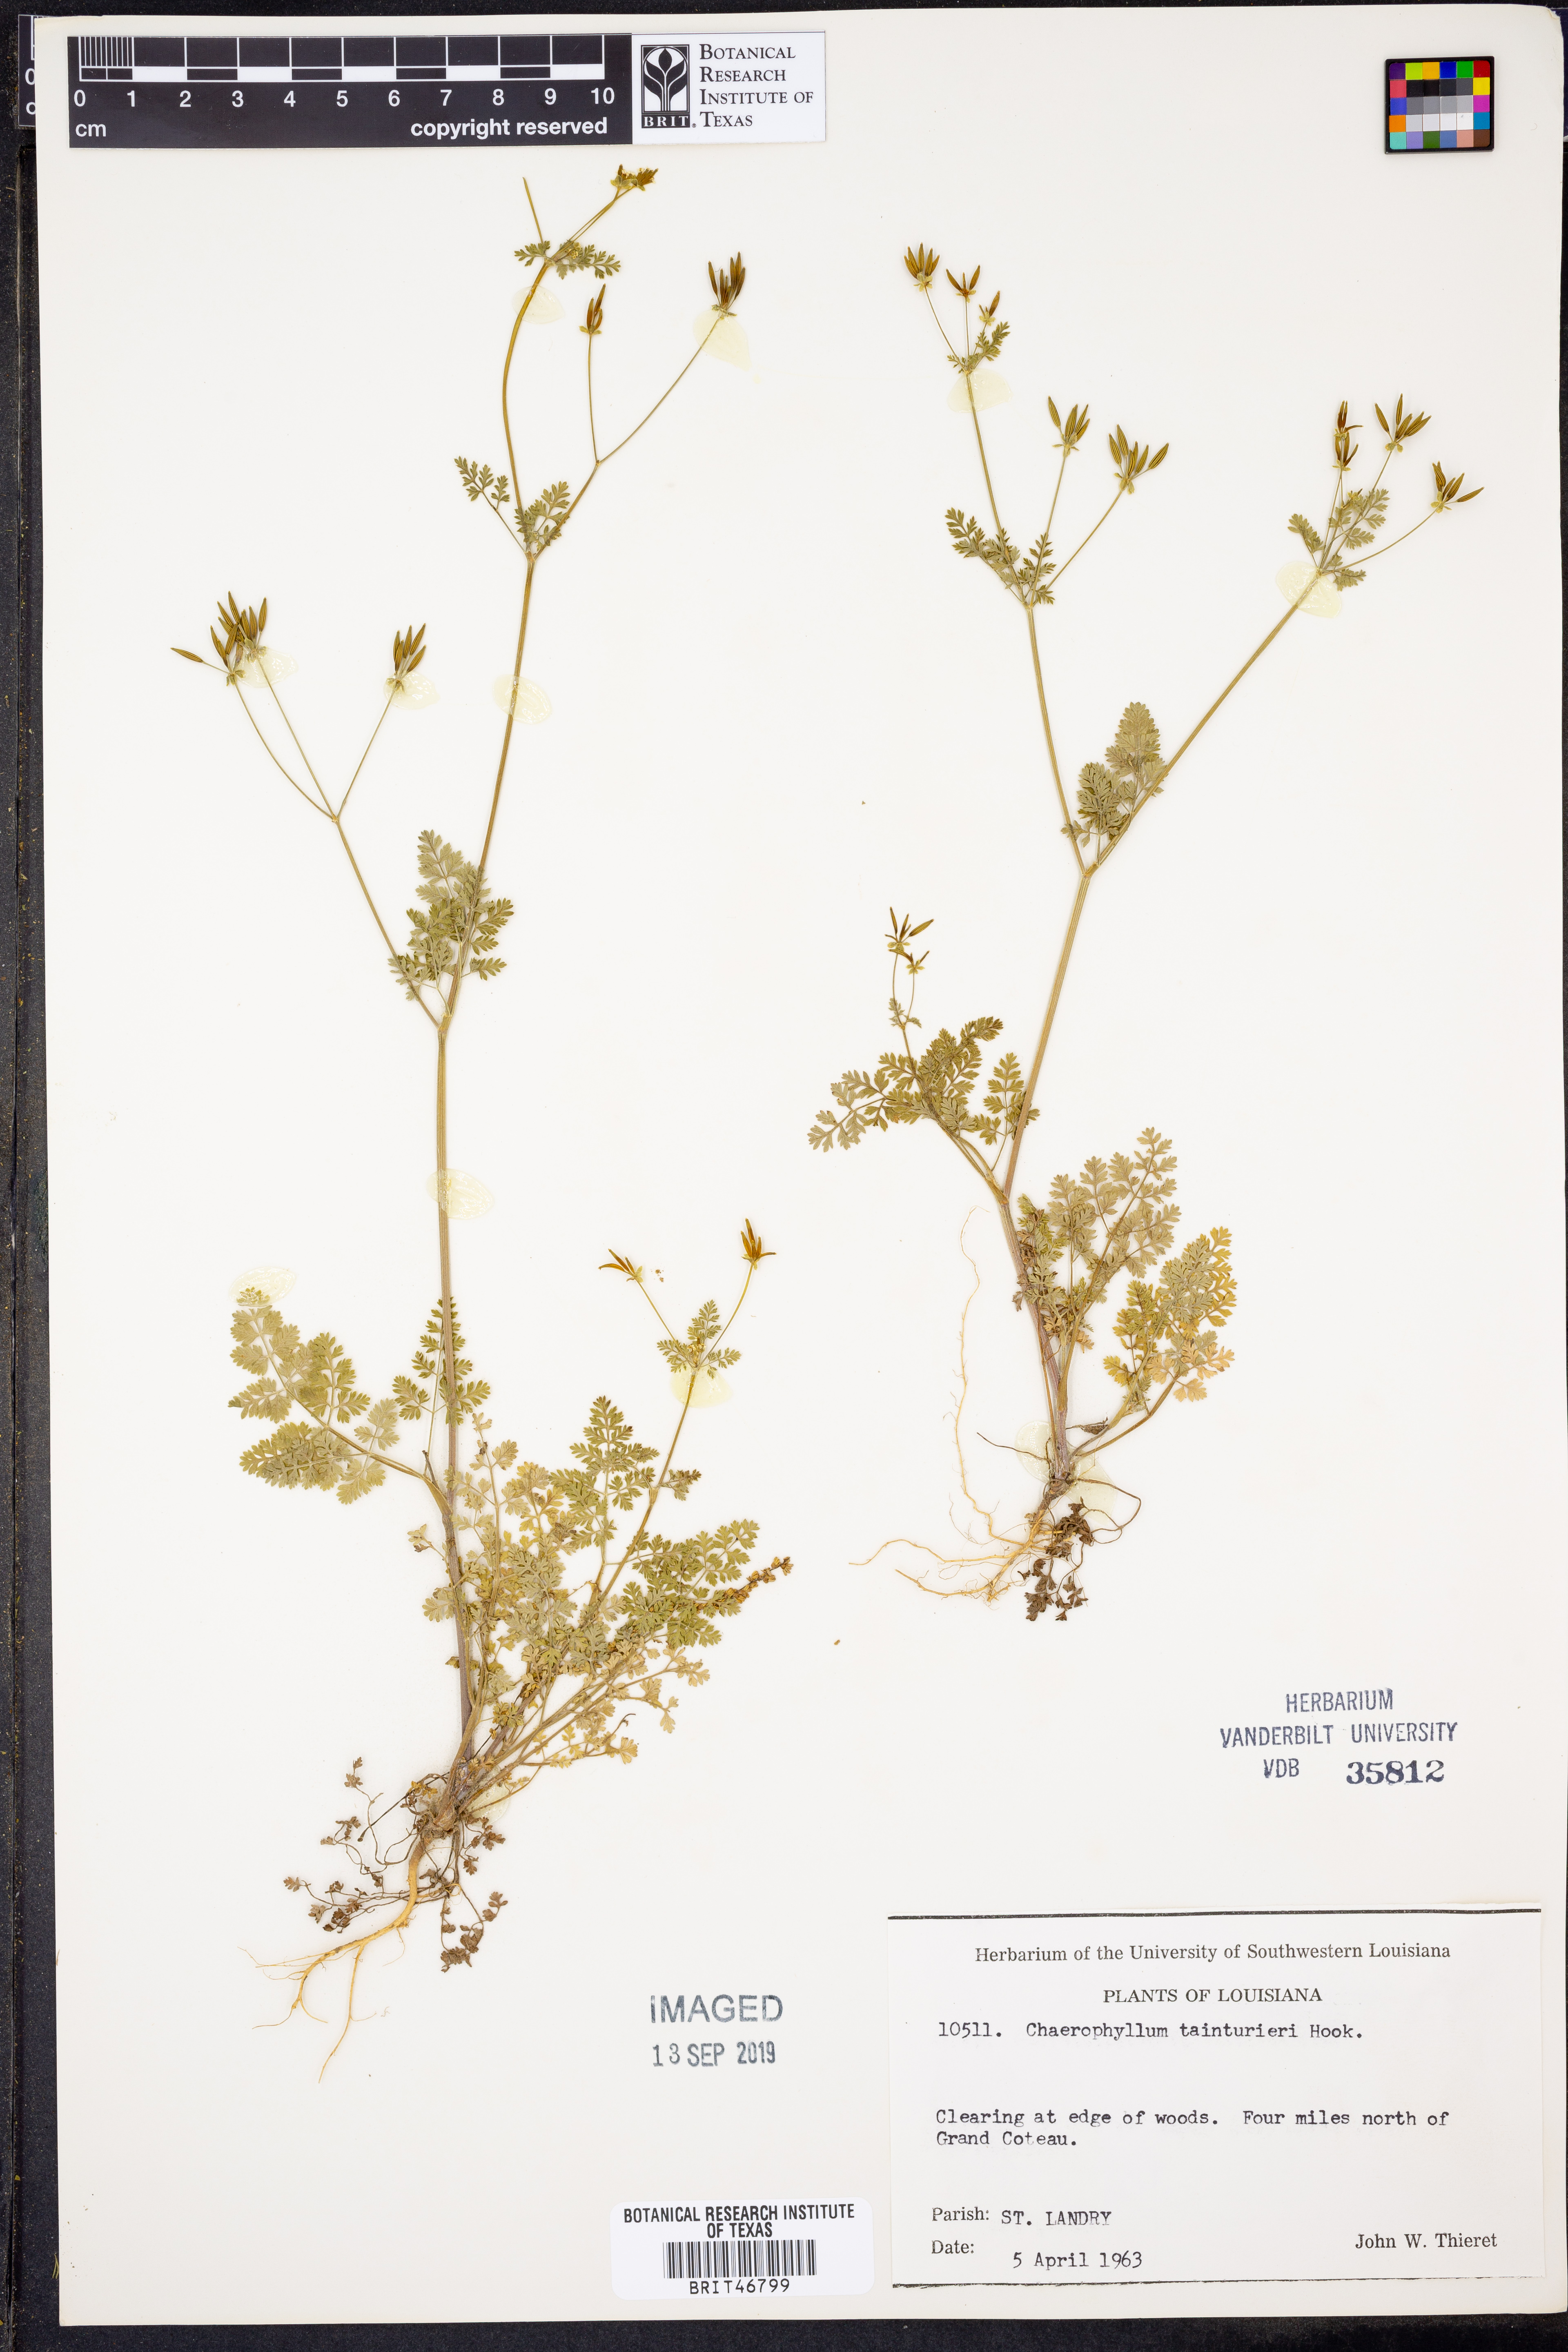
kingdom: Plantae
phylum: Tracheophyta
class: Magnoliopsida
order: Apiales
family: Apiaceae
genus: Chaerophyllum
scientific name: Chaerophyllum tainturieri
